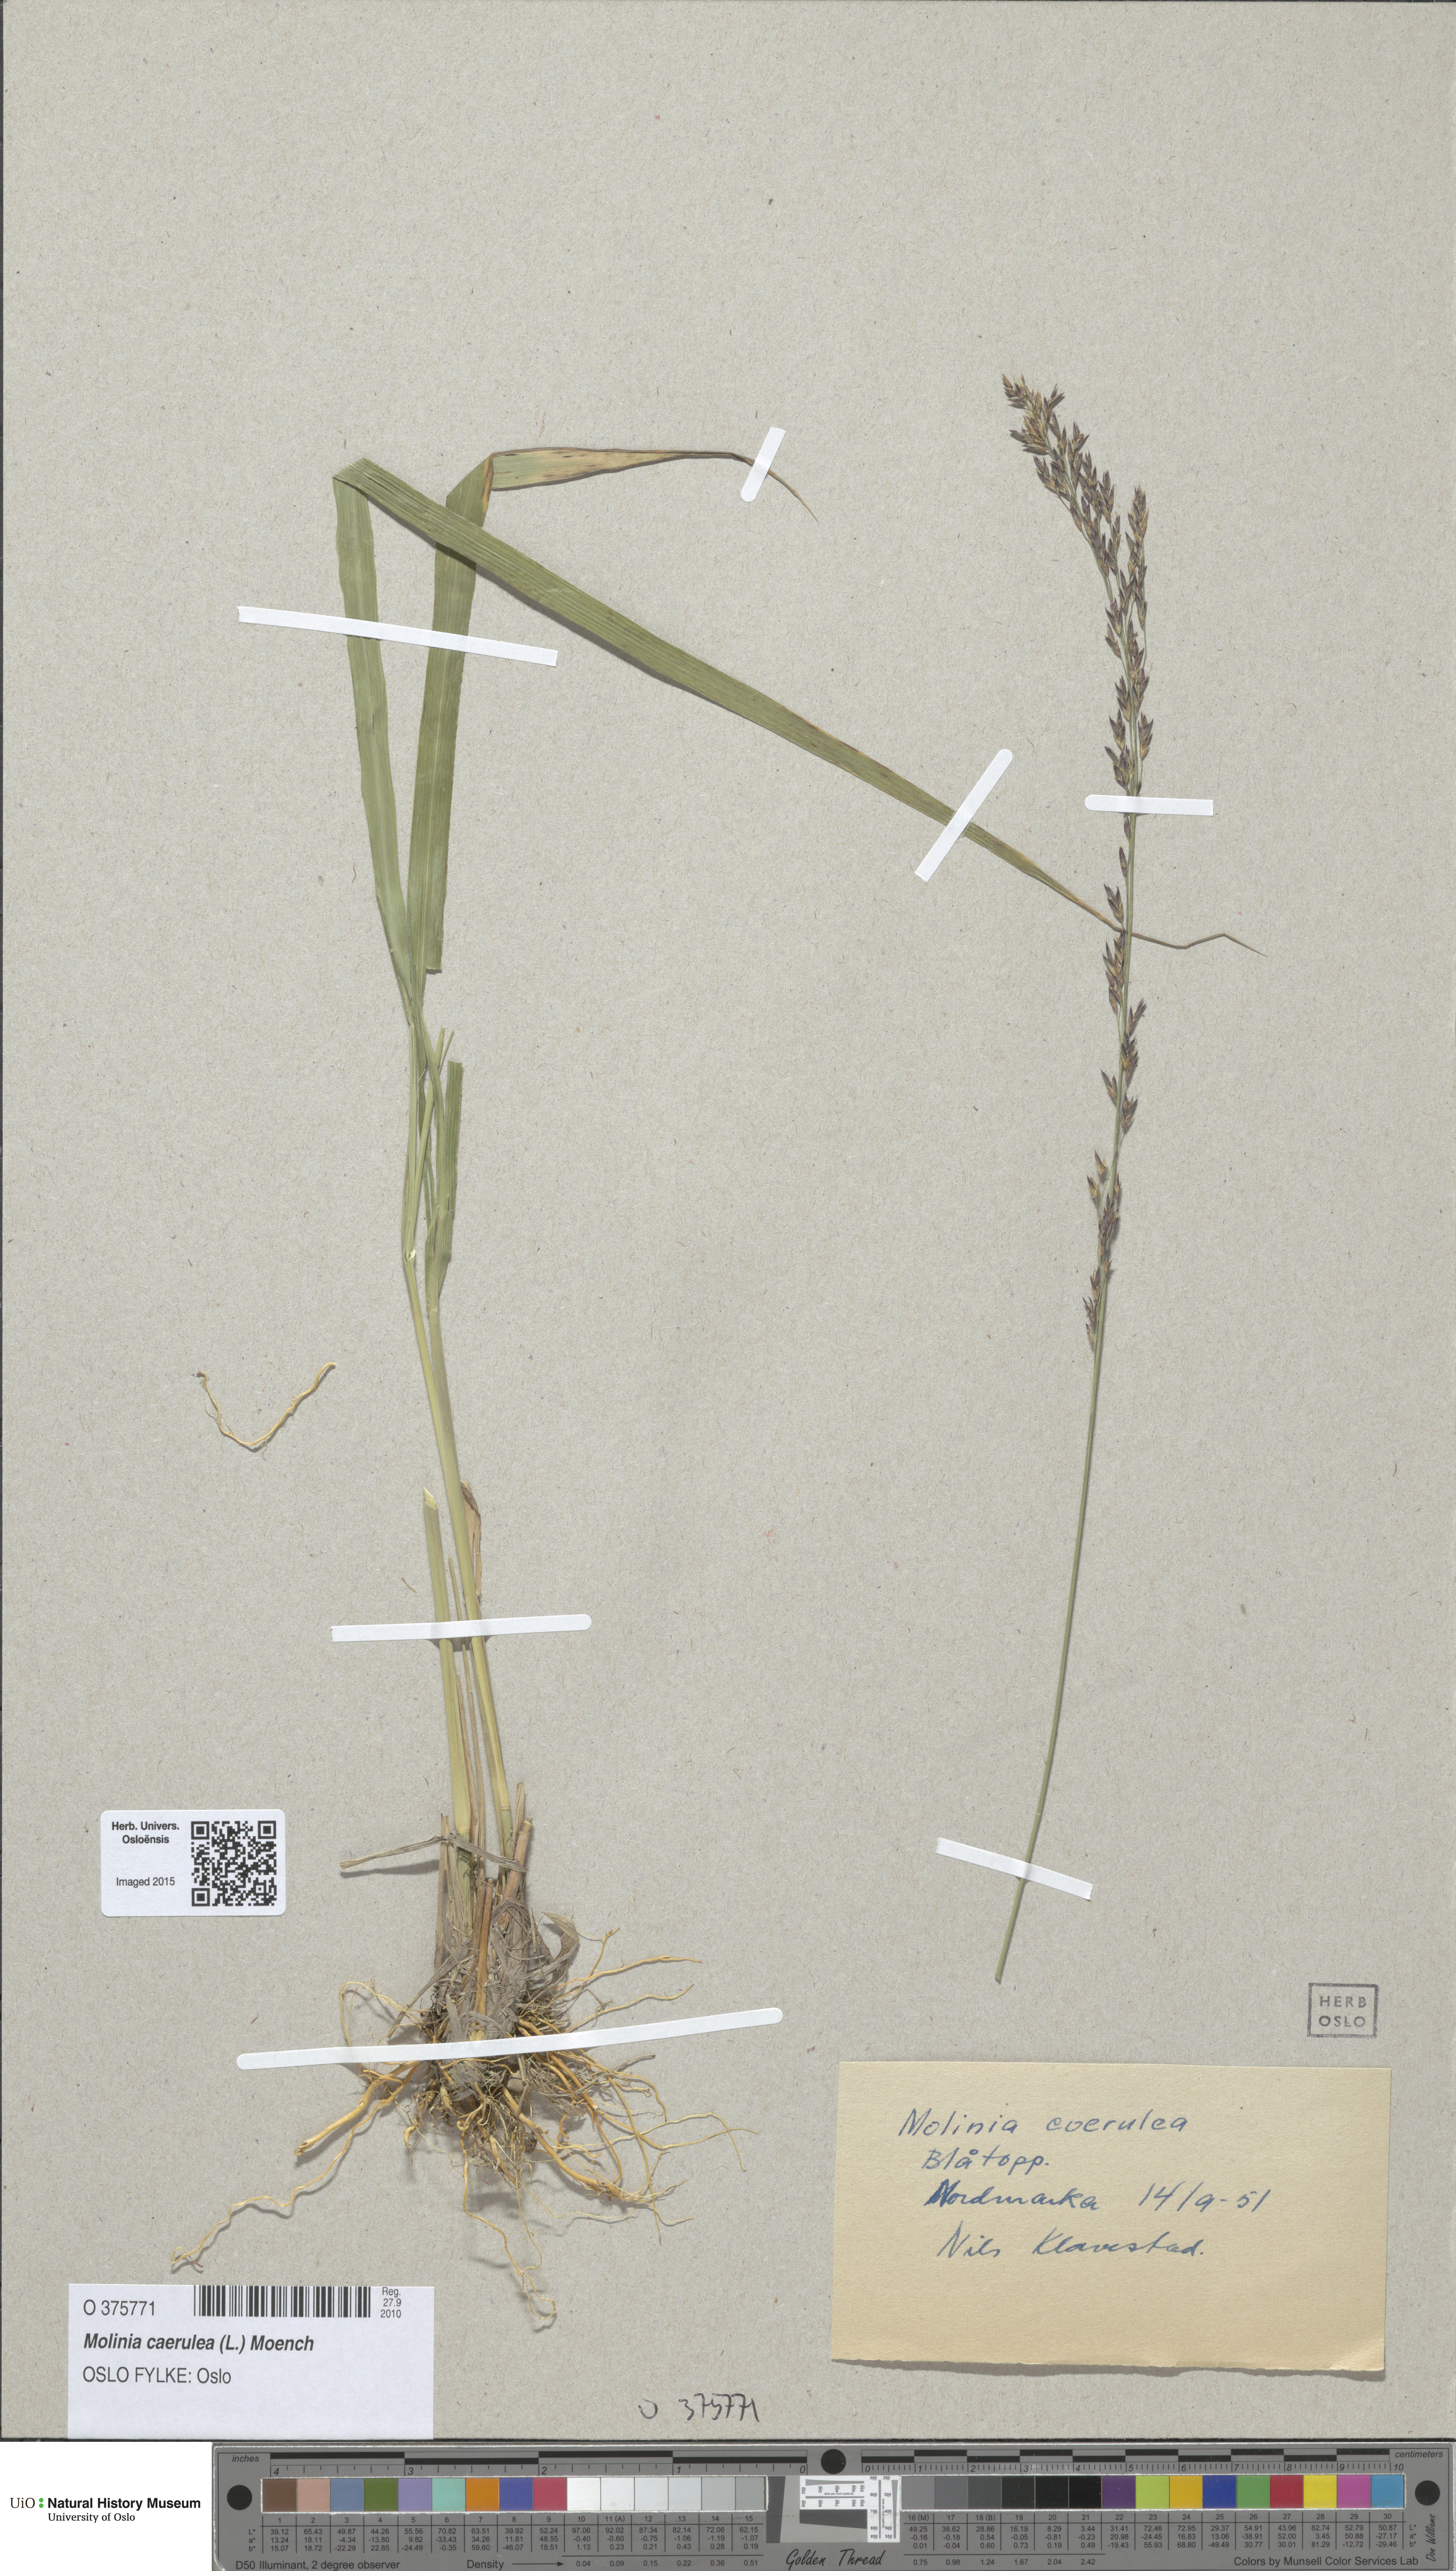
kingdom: Plantae
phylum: Tracheophyta
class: Liliopsida
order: Poales
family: Poaceae
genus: Molinia
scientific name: Molinia caerulea
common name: Purple moor-grass
